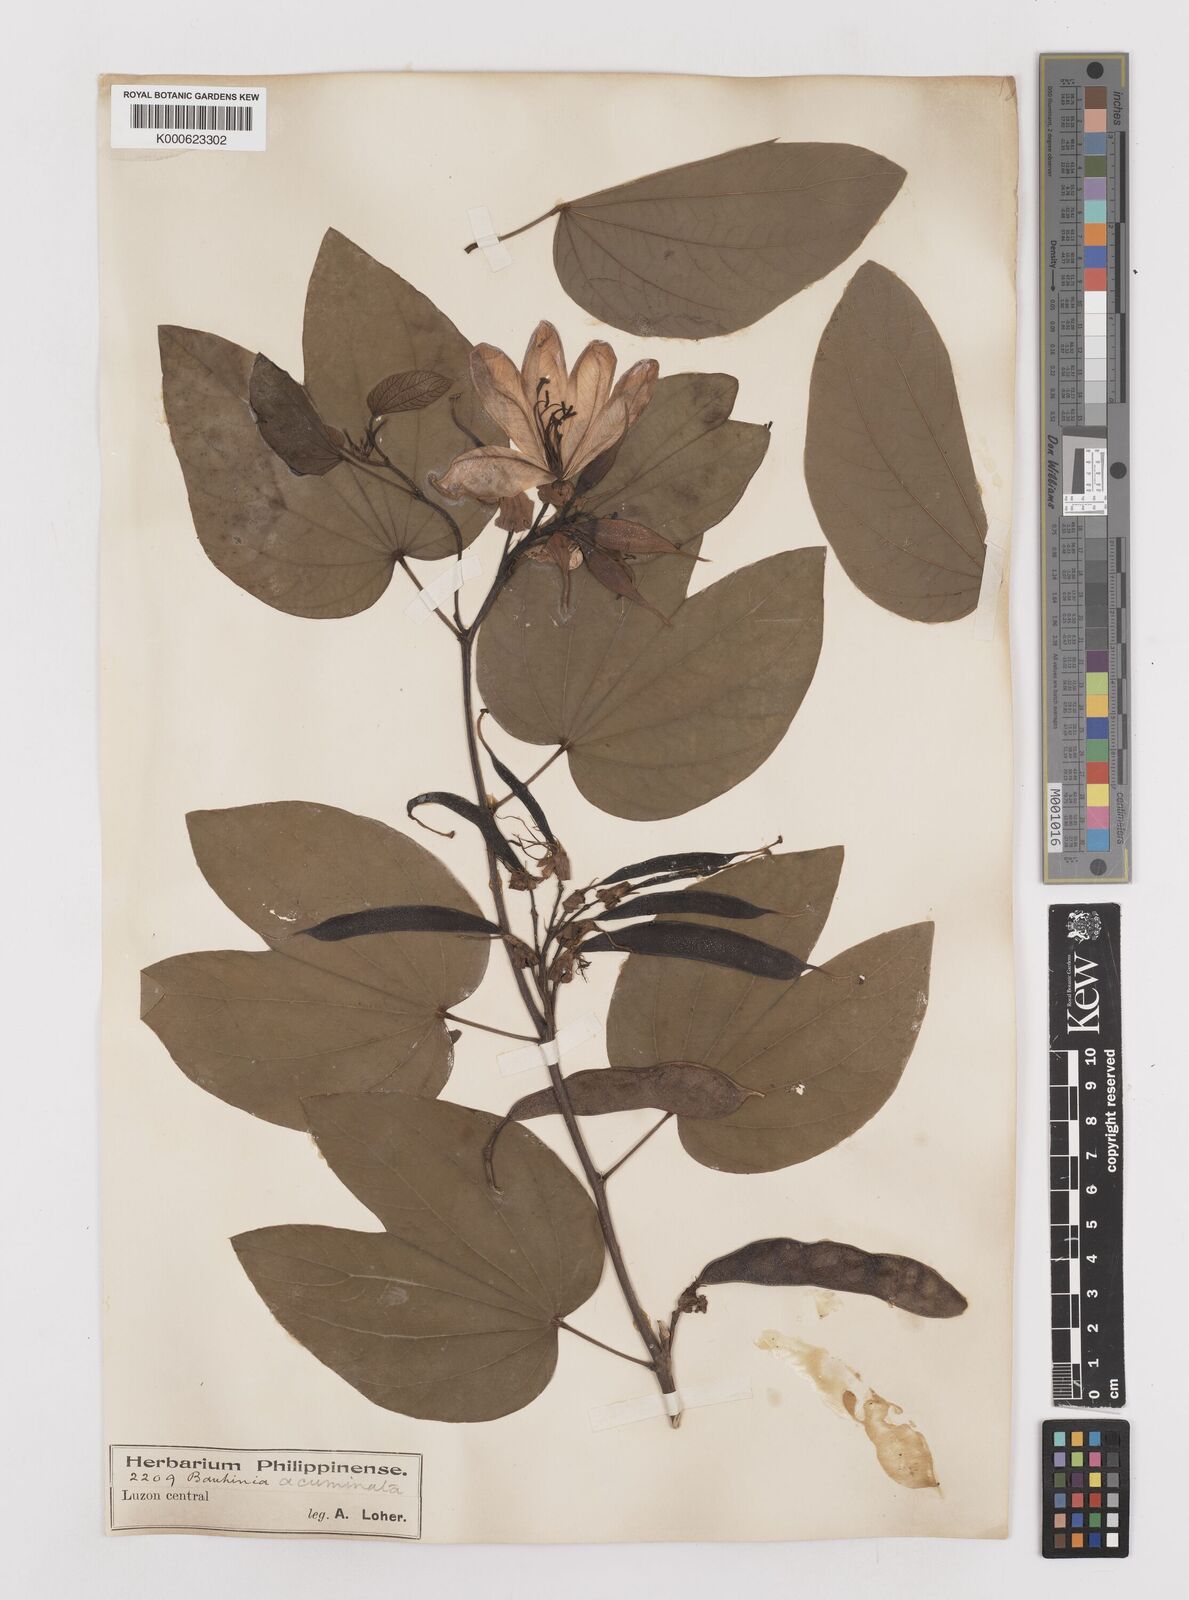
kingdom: Plantae
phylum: Tracheophyta
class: Magnoliopsida
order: Fabales
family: Fabaceae
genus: Bauhinia
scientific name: Bauhinia acuminata
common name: Dwarf white bauhinia
